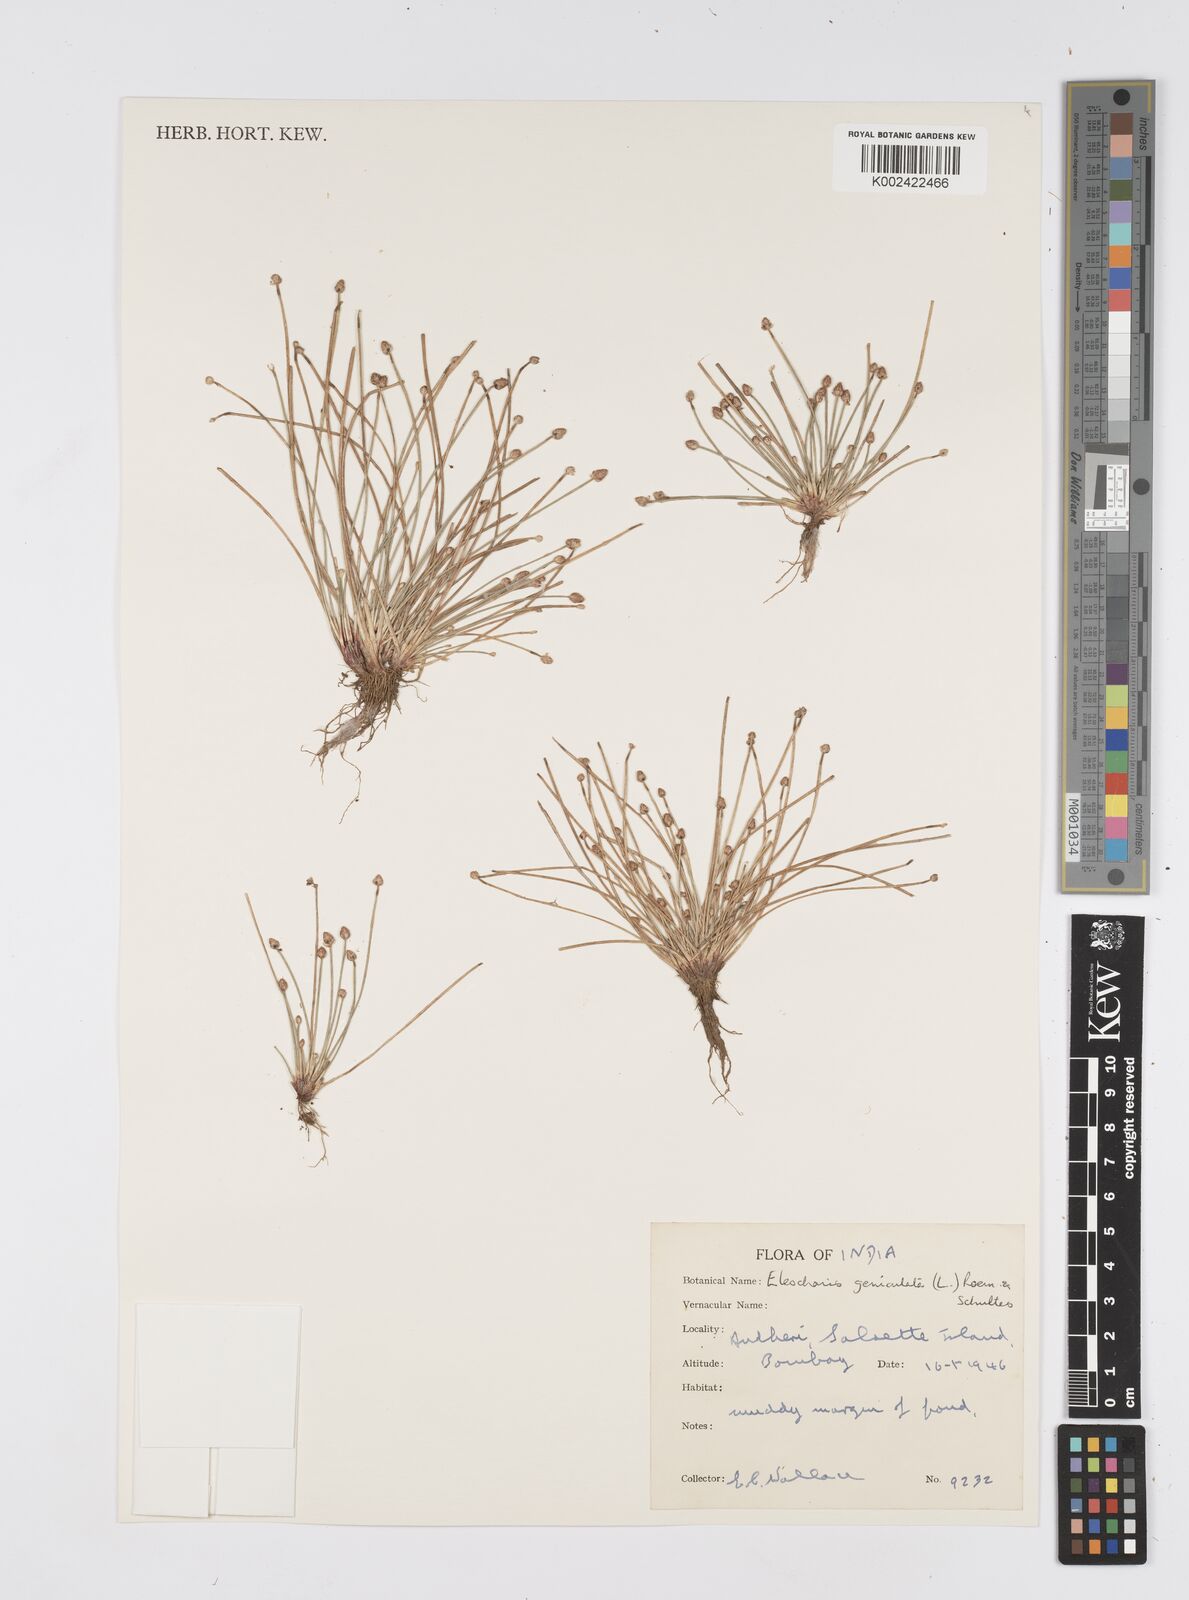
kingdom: Plantae
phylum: Tracheophyta
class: Liliopsida
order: Poales
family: Cyperaceae
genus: Eleocharis
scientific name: Eleocharis geniculata
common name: Canada spikesedge
